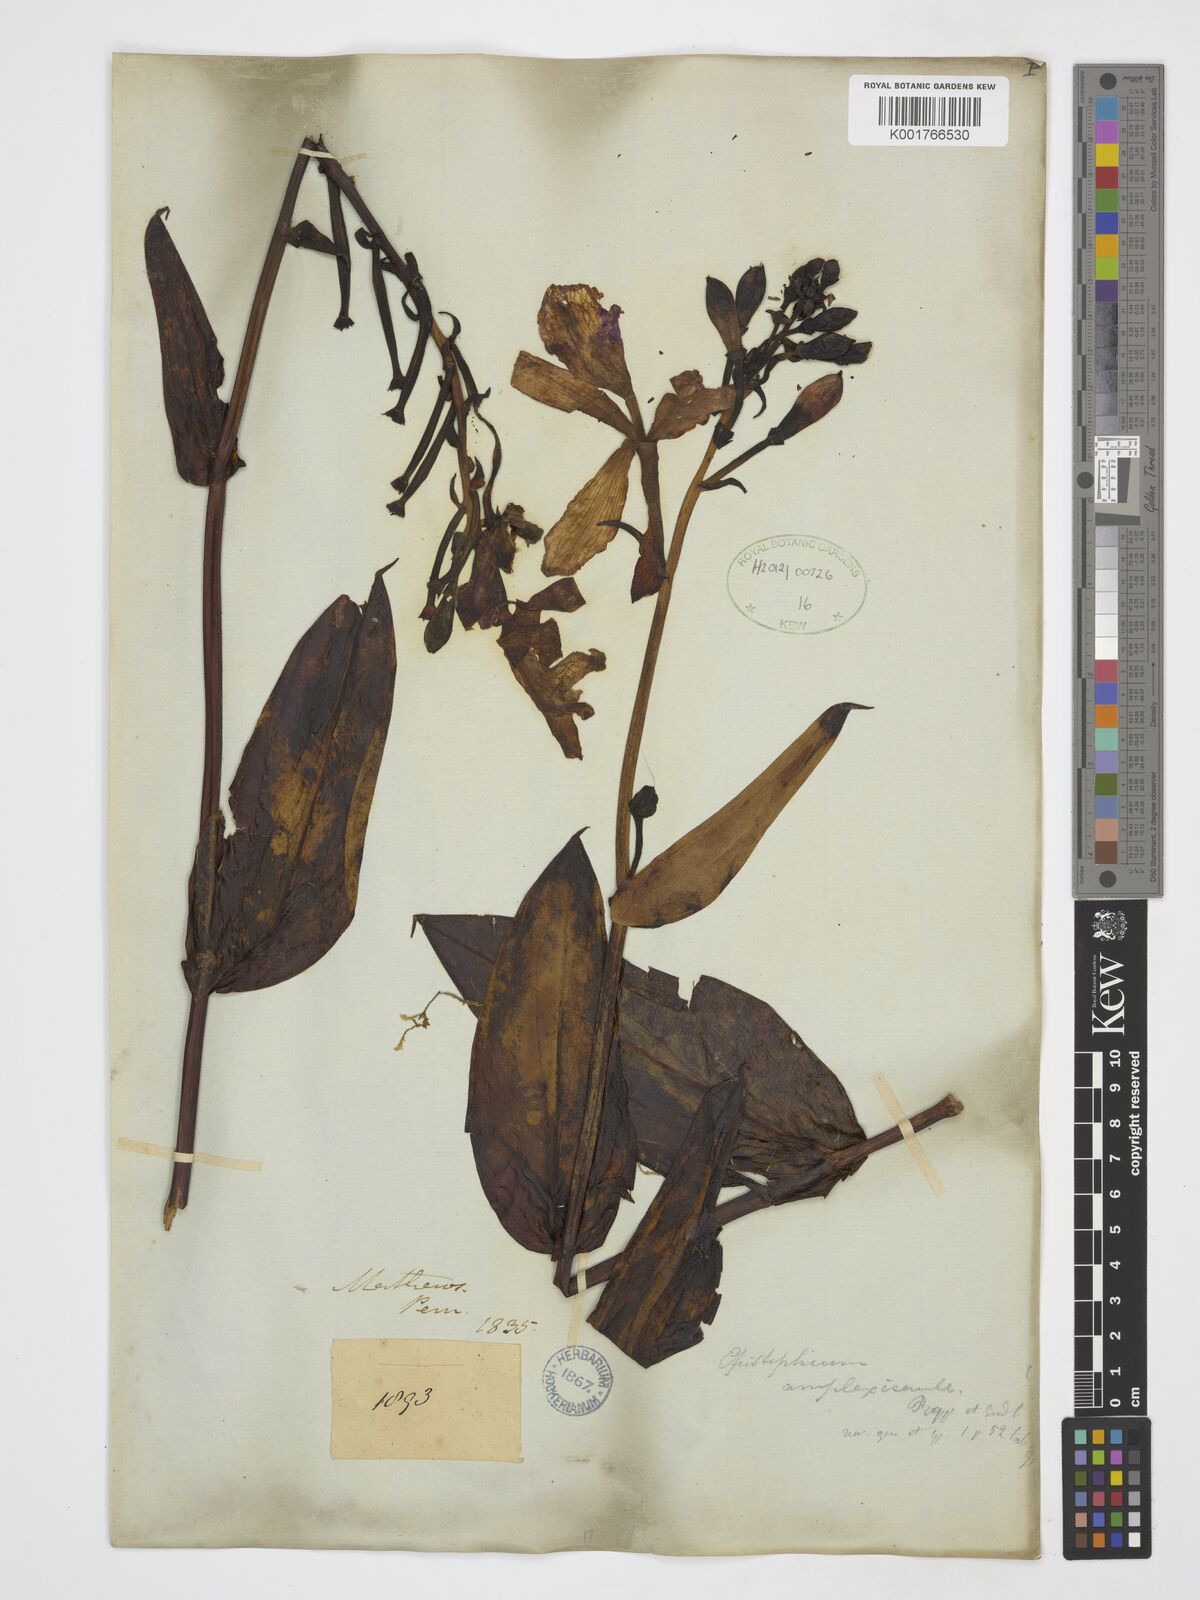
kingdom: Plantae
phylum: Tracheophyta
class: Liliopsida
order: Asparagales
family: Orchidaceae
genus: Epistephium
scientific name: Epistephium amplexicaule
